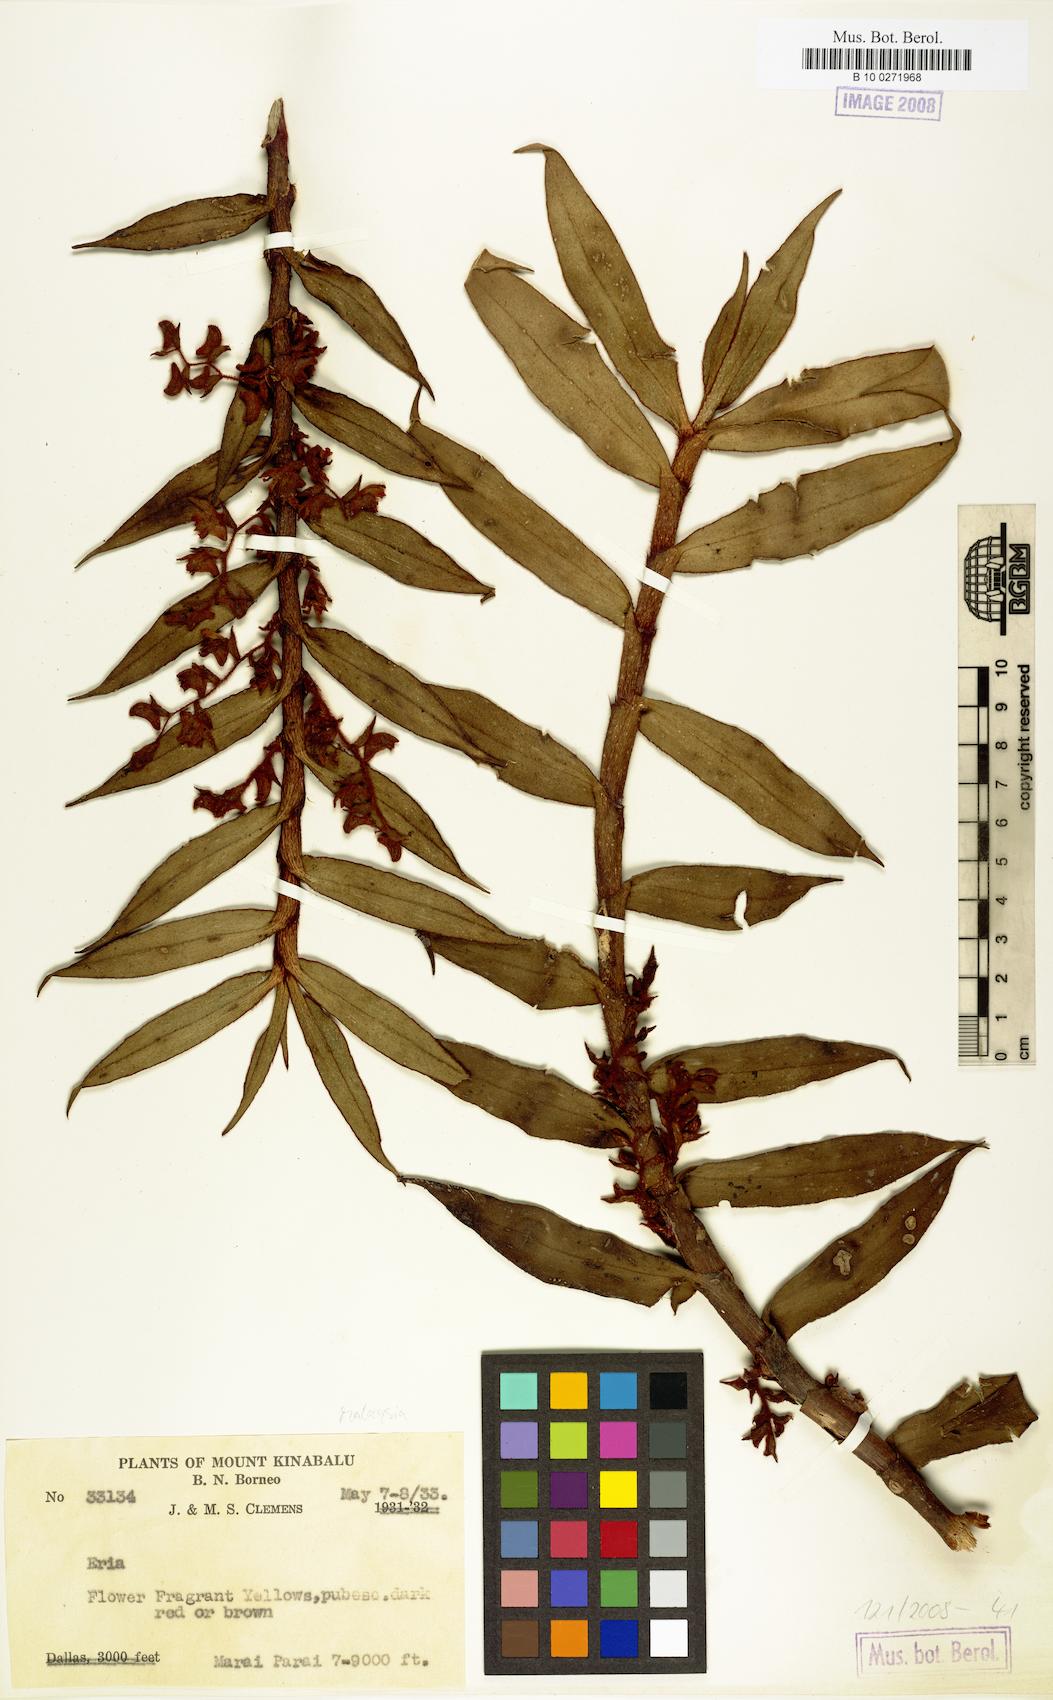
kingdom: Plantae
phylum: Tracheophyta
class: Liliopsida
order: Asparagales
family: Orchidaceae
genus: Eria
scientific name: Eria
